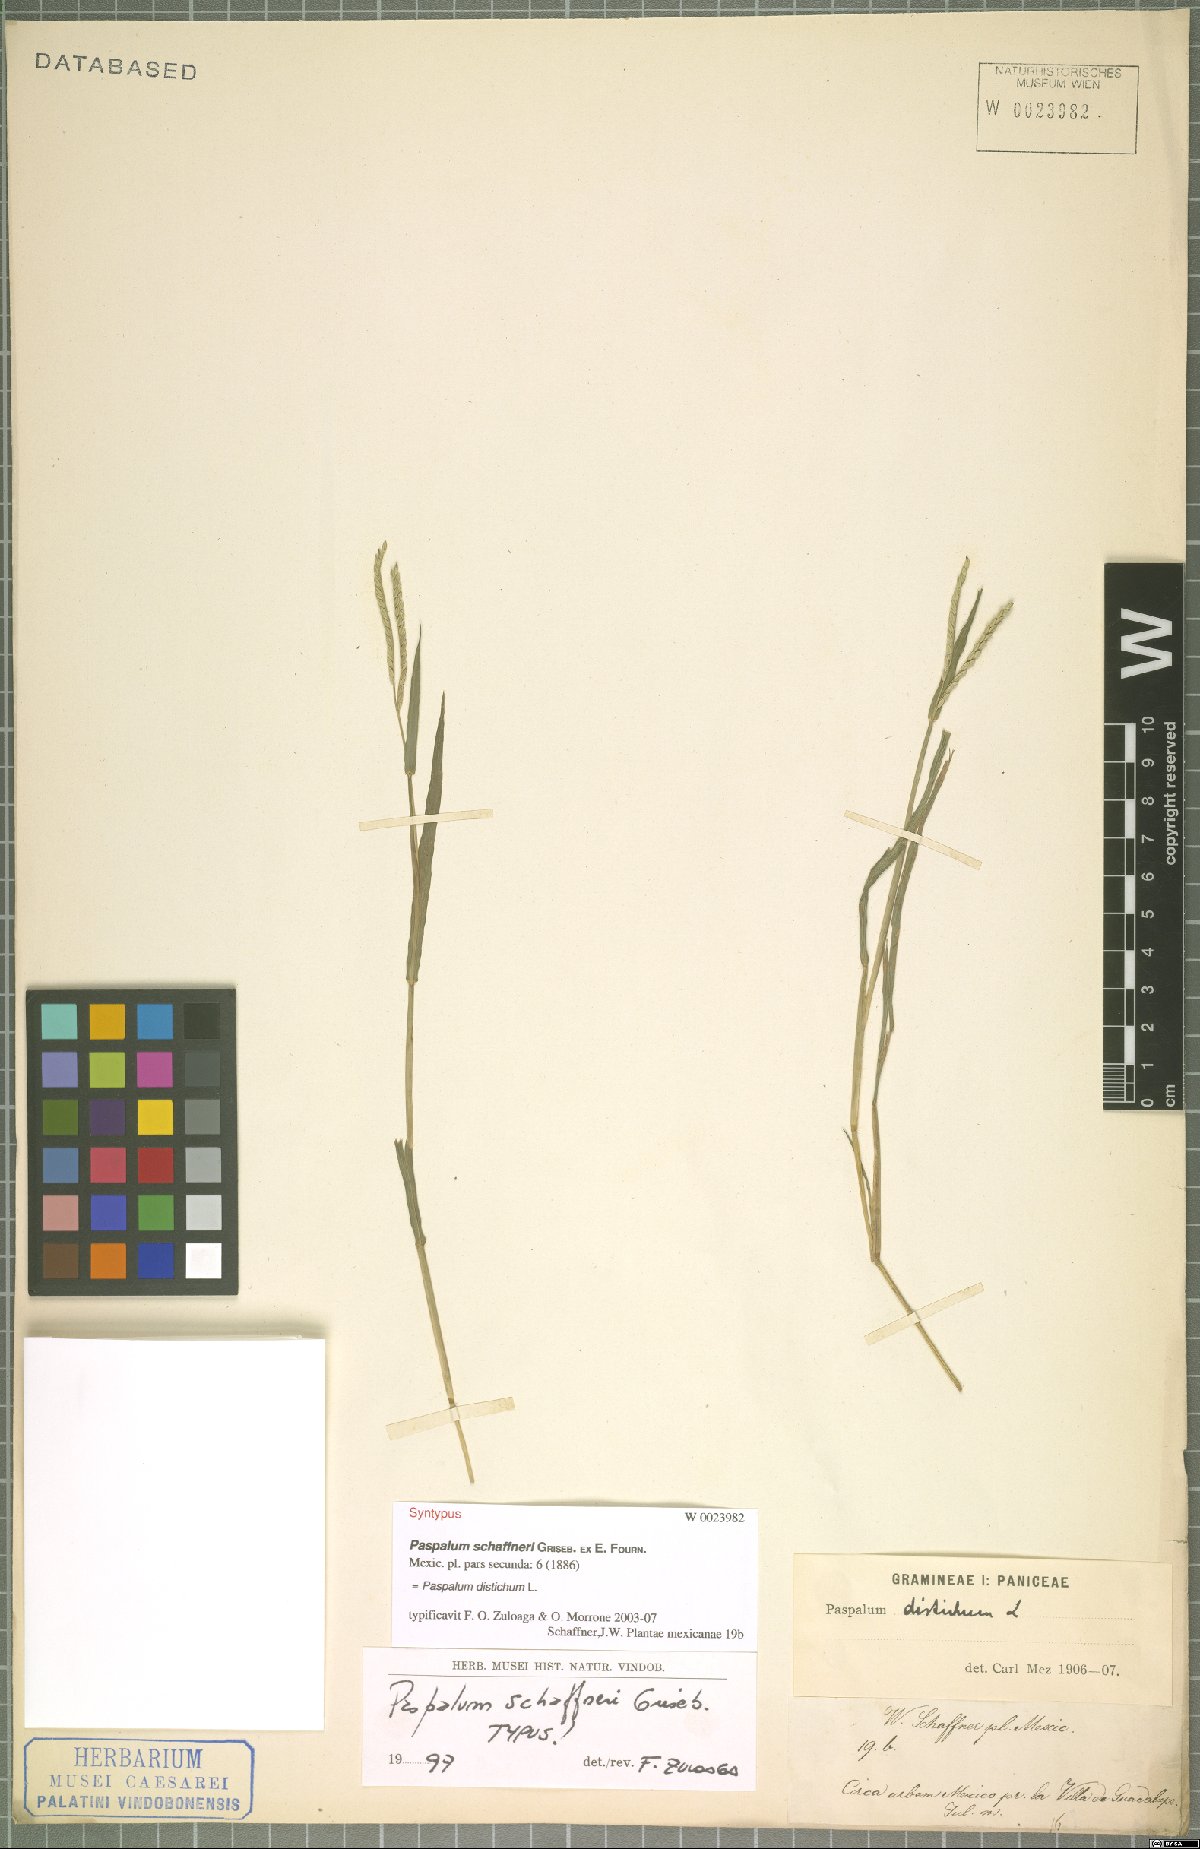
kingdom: Plantae
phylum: Tracheophyta
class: Liliopsida
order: Poales
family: Poaceae
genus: Paspalum
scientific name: Paspalum distichum
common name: Knotgrass
